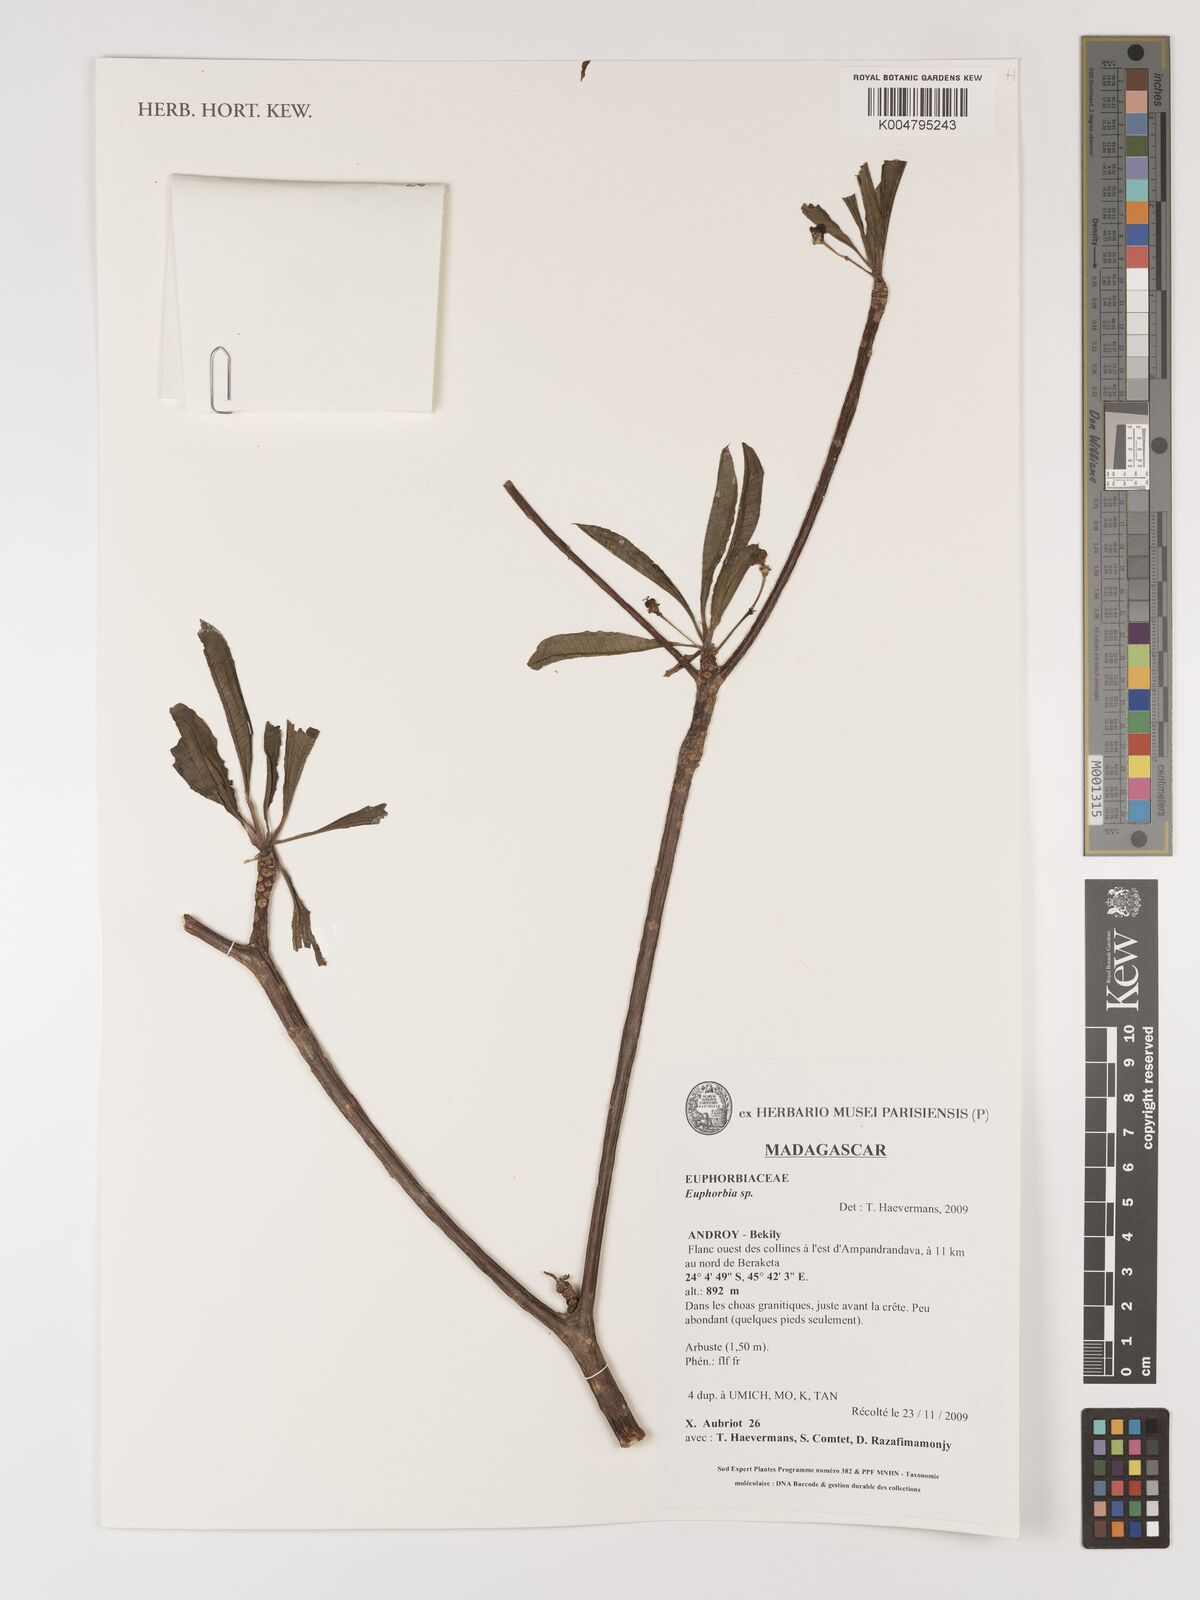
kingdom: Plantae
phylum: Tracheophyta
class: Magnoliopsida
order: Malpighiales
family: Euphorbiaceae
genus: Euphorbia
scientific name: Euphorbia
